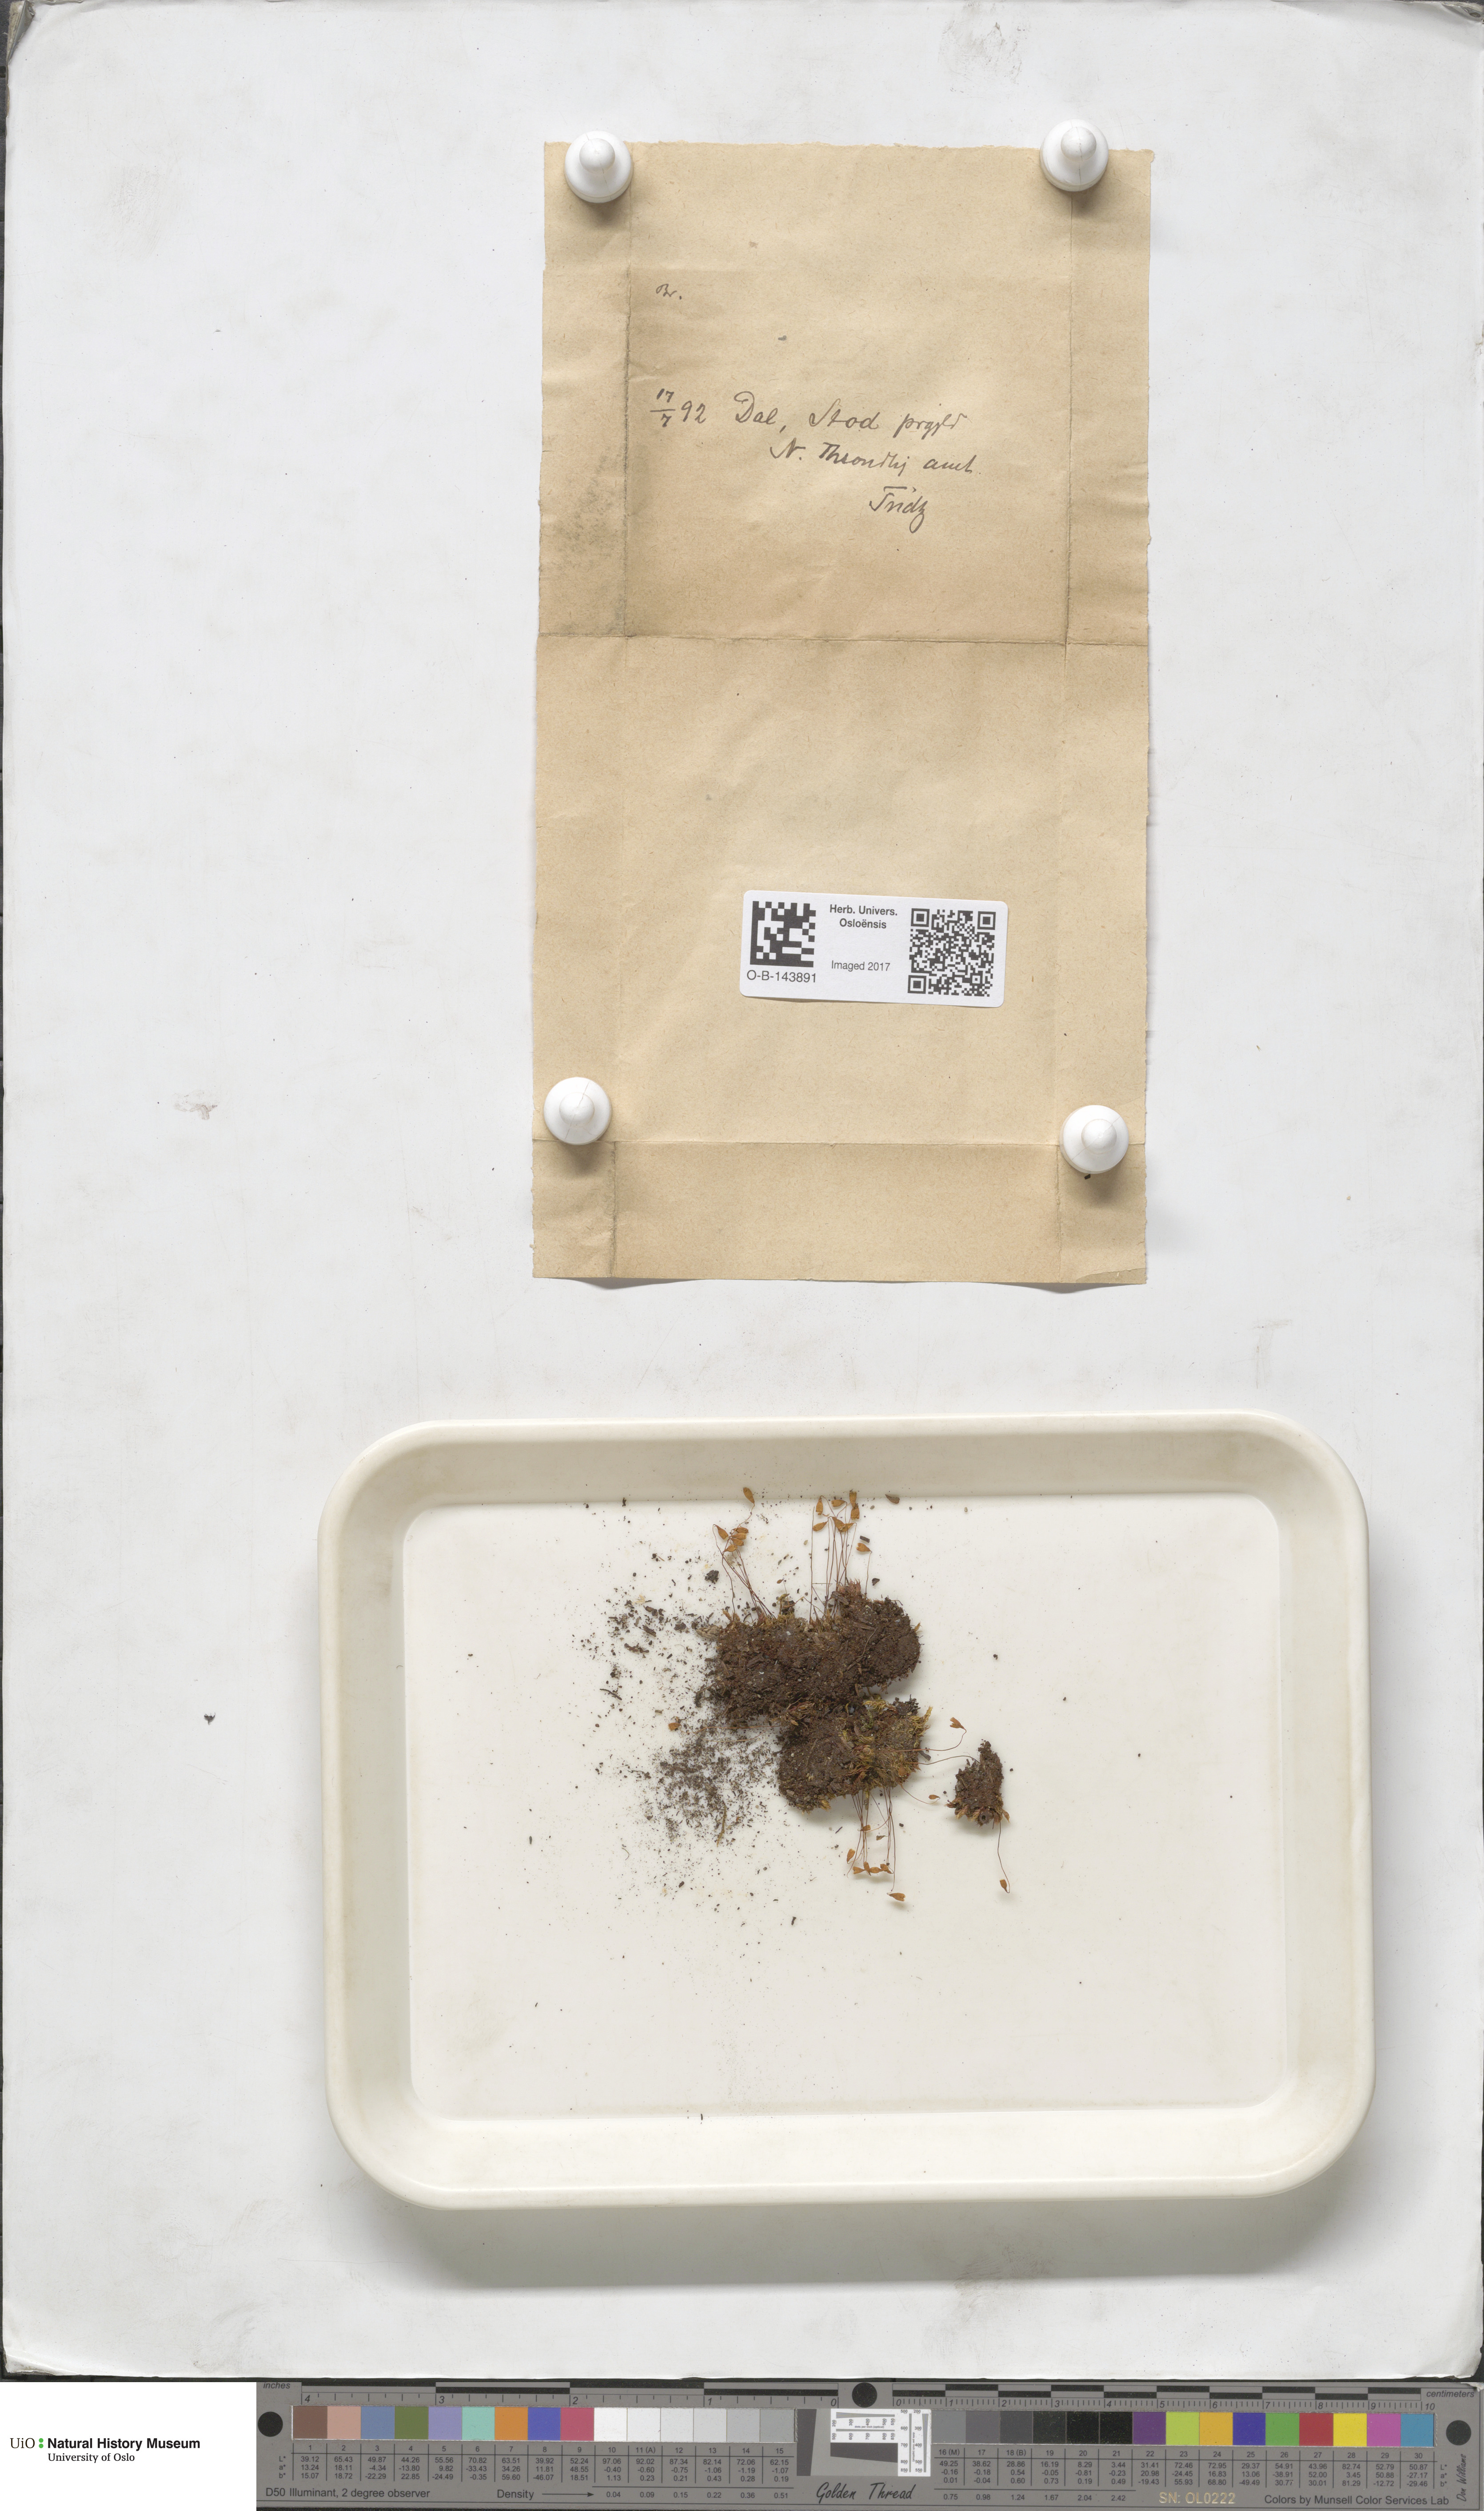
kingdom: Plantae
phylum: Bryophyta
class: Bryopsida
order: Bryales
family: Bryaceae
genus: Bryum
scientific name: Bryum
